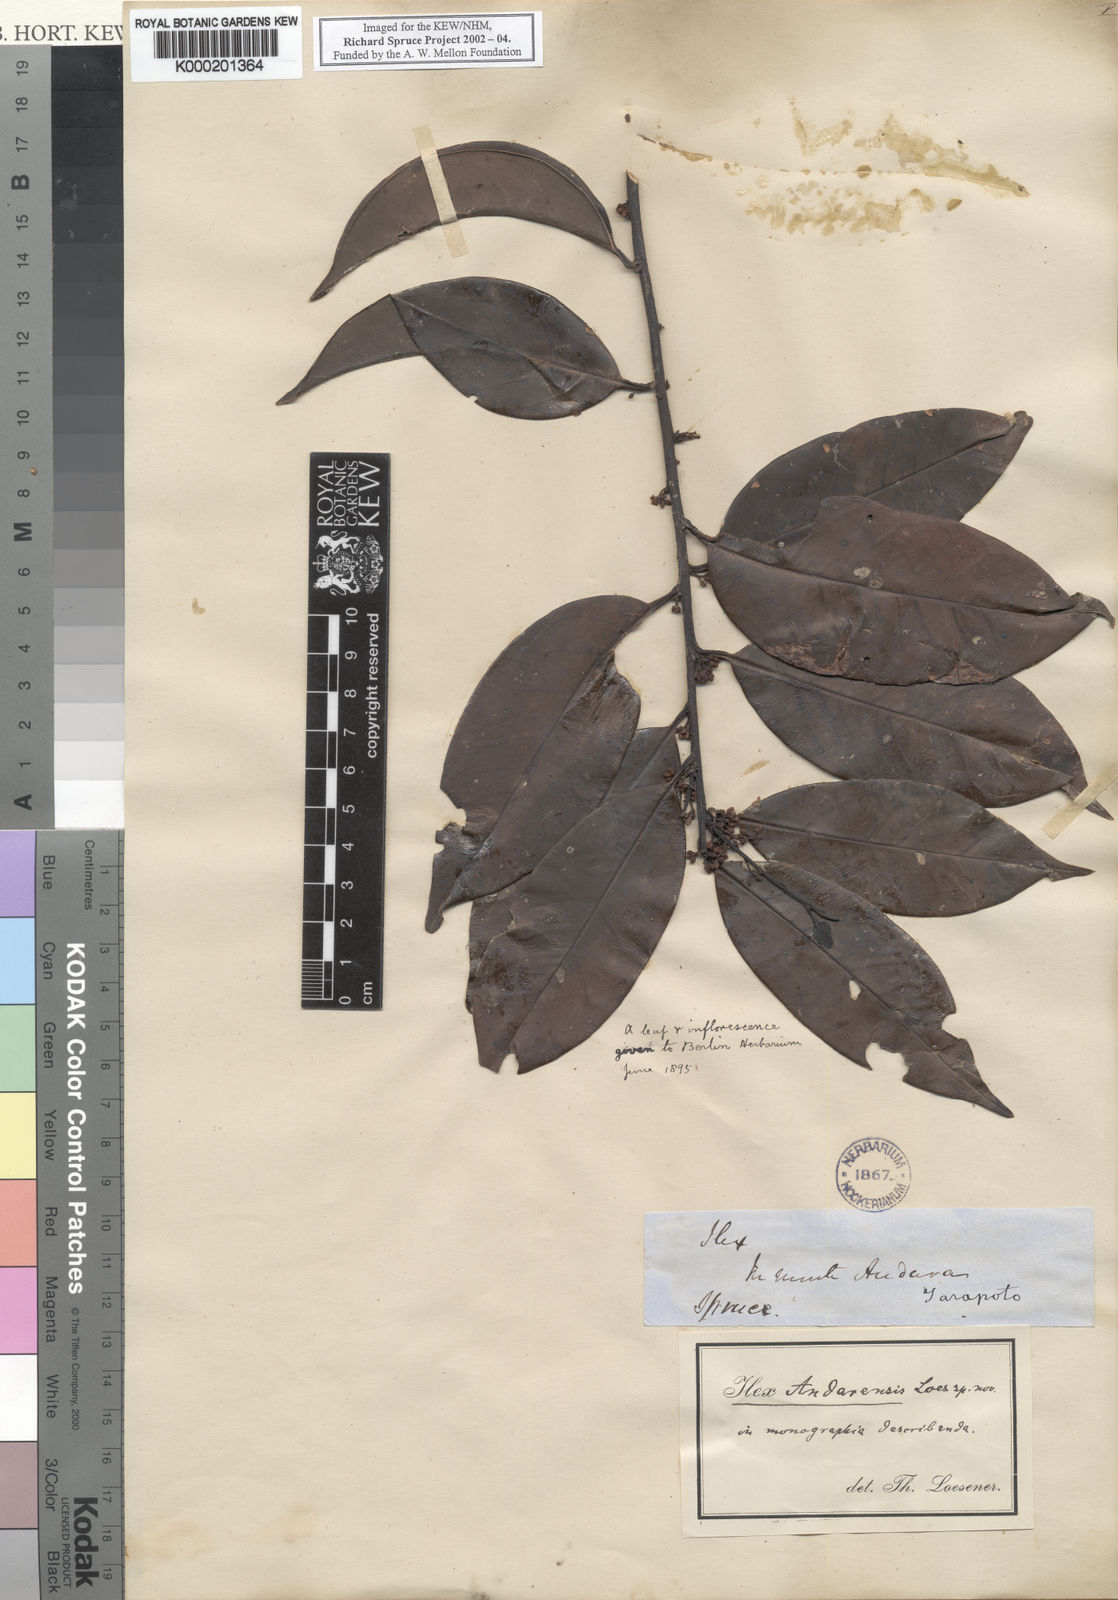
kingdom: Plantae
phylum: Tracheophyta
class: Magnoliopsida
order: Aquifoliales
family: Aquifoliaceae
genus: Ilex
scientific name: Ilex vismiifolia
